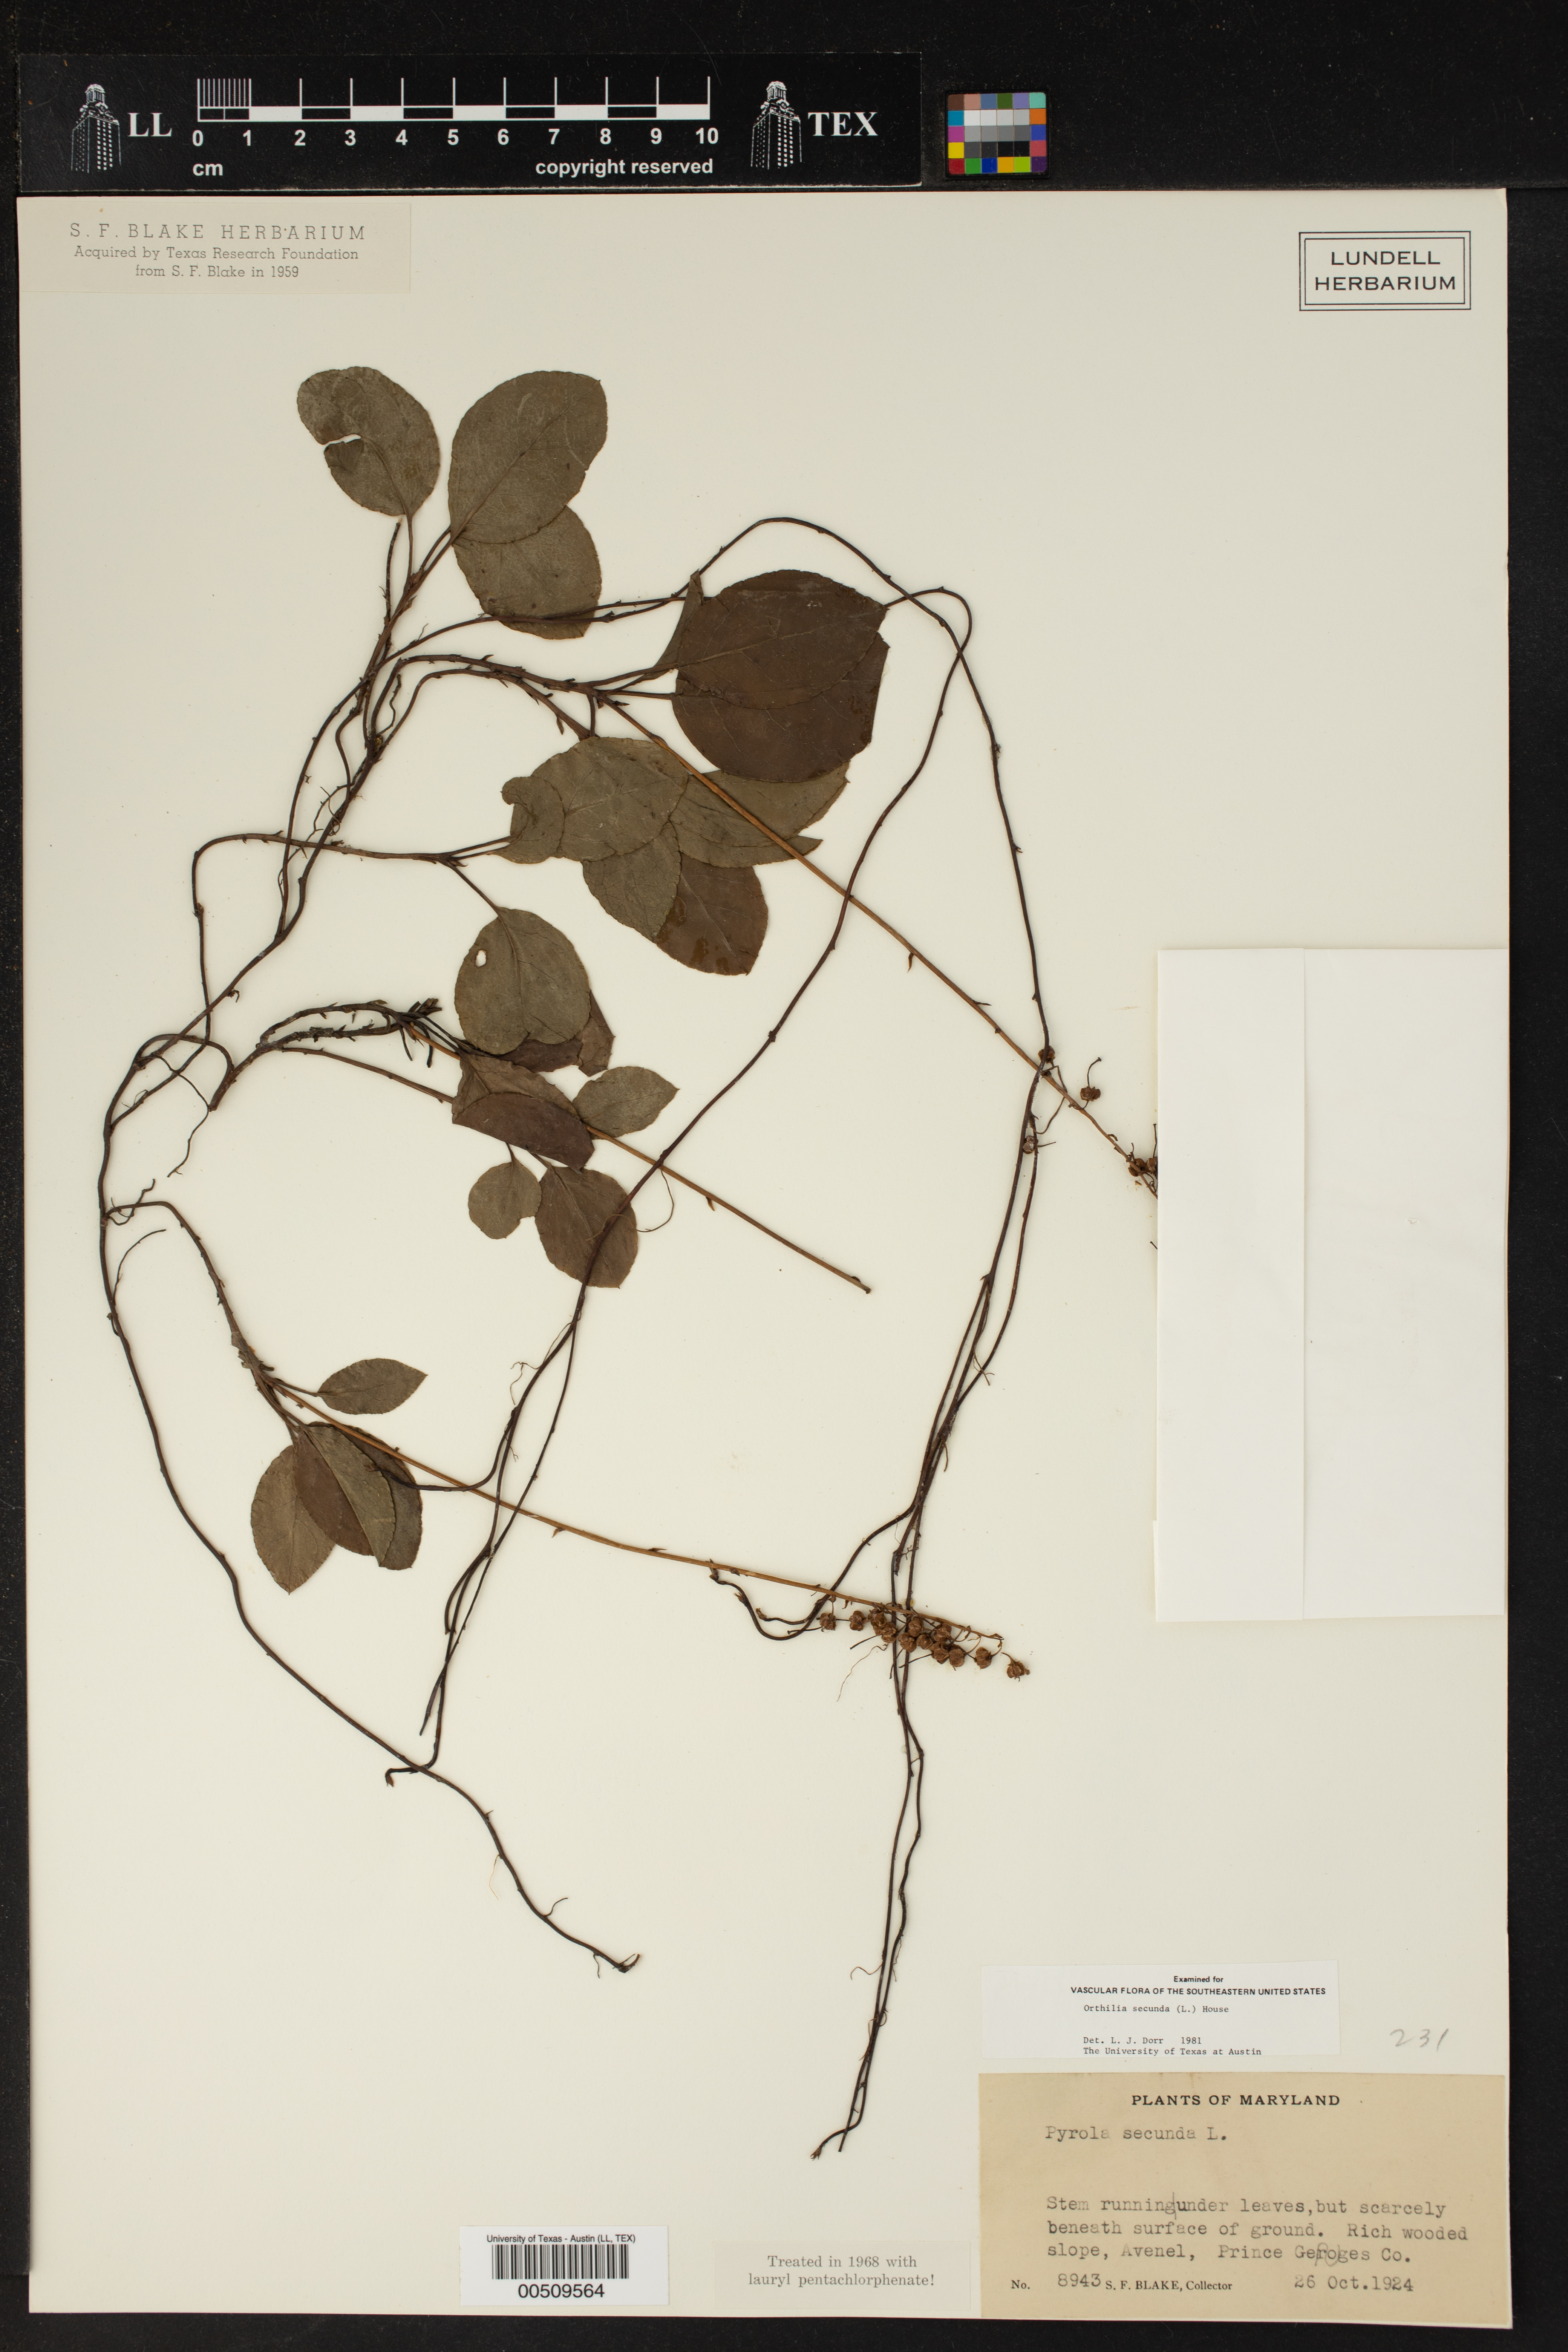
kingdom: Plantae
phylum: Tracheophyta
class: Magnoliopsida
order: Ericales
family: Ericaceae
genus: Orthilia
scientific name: Orthilia secunda
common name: One-sided orthilia
